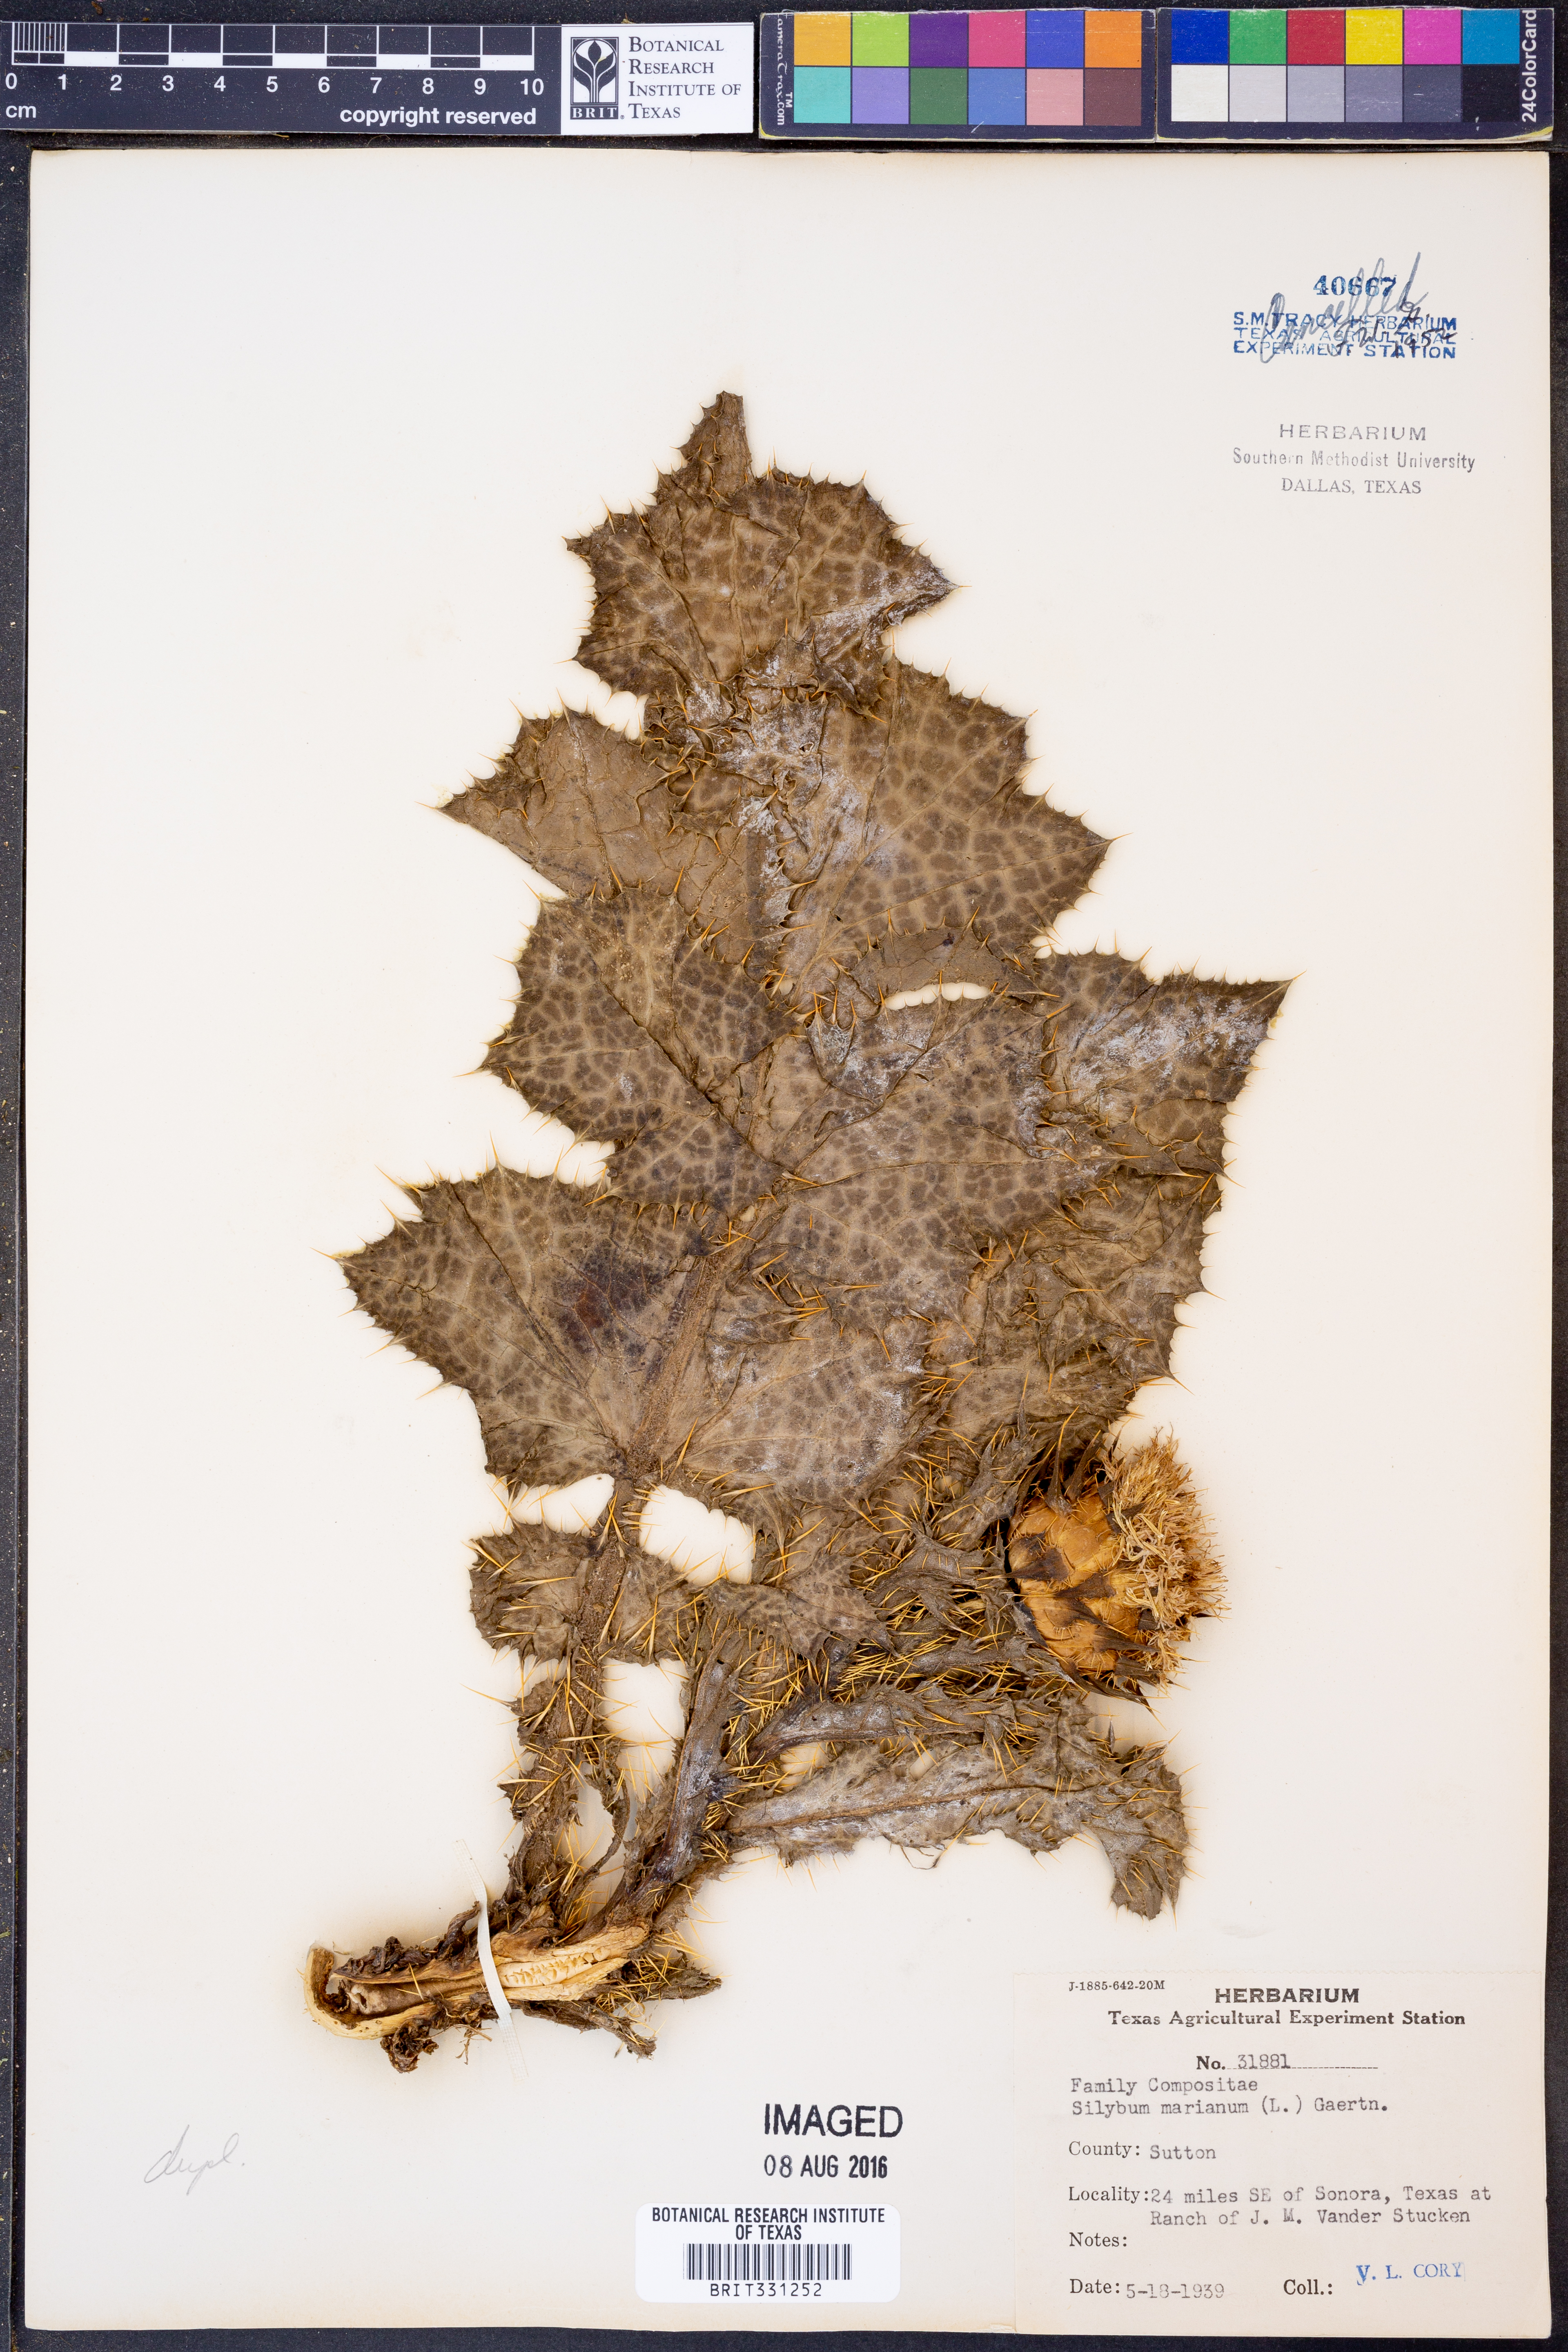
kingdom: Plantae
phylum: Tracheophyta
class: Magnoliopsida
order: Asterales
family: Asteraceae
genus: Silybum
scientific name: Silybum marianum
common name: Milk thistle
